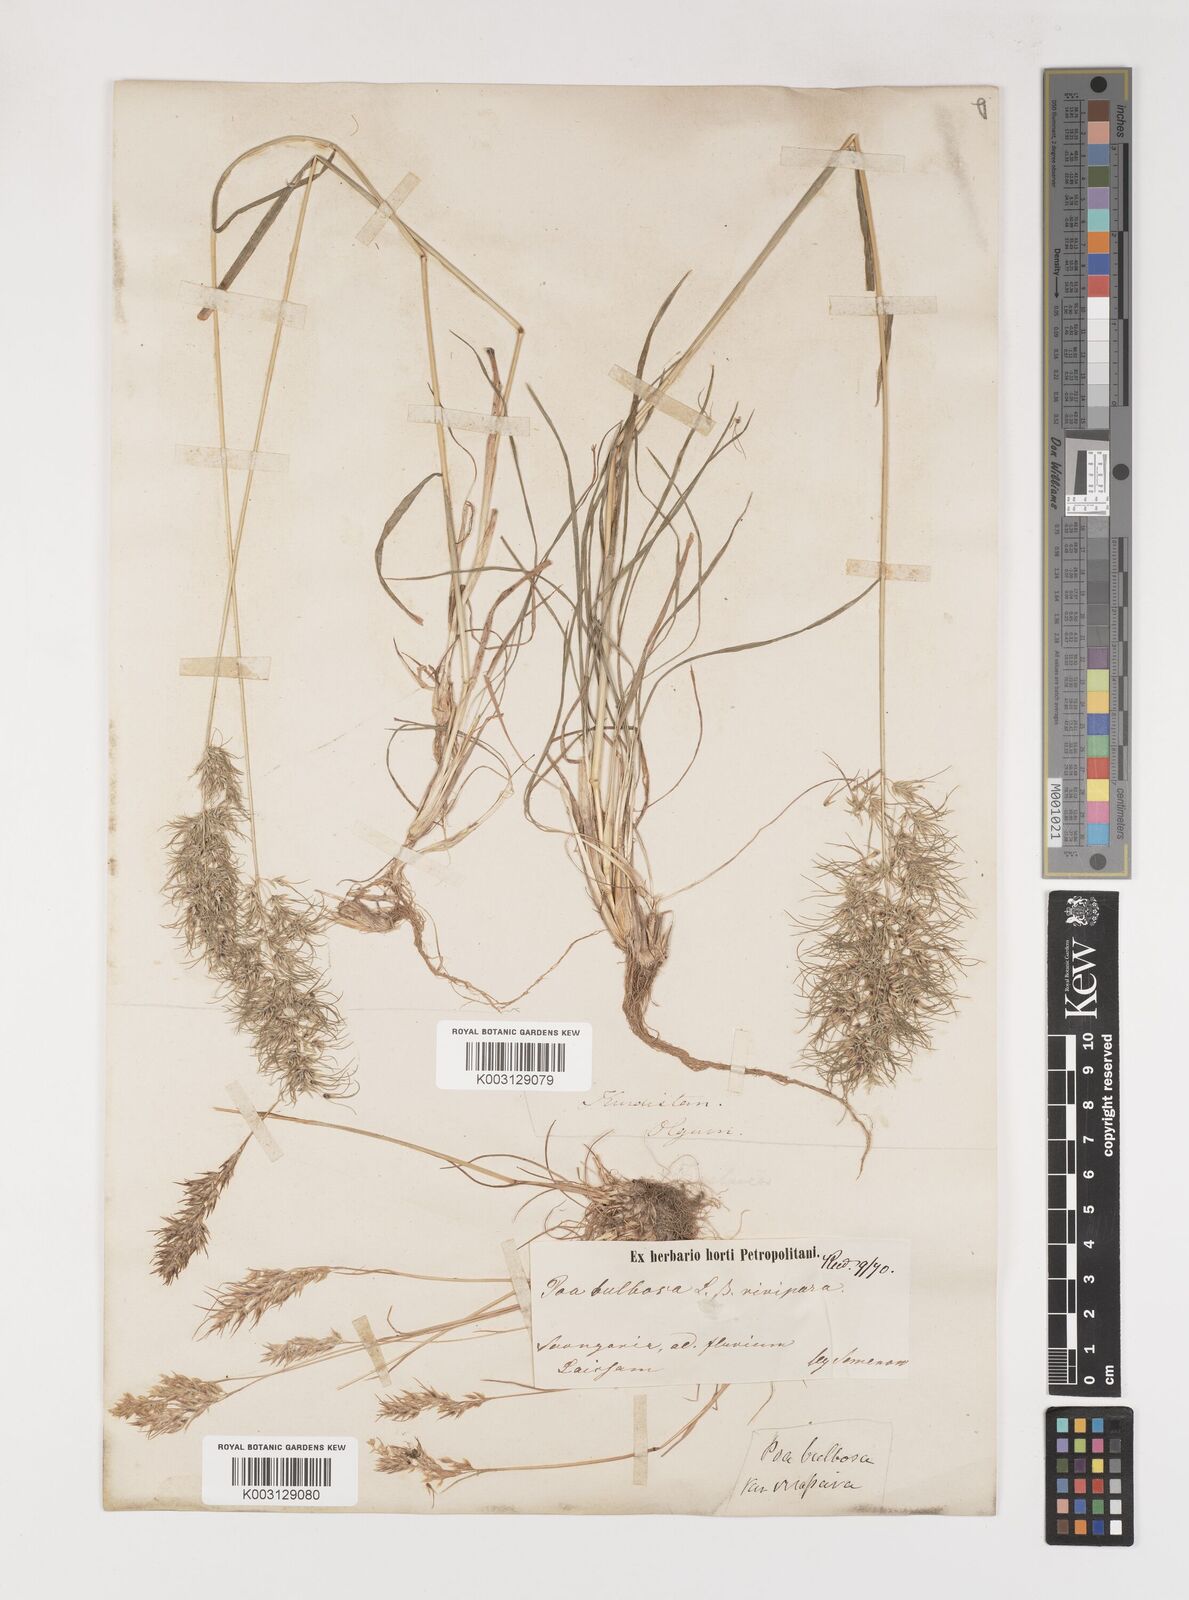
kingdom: Plantae
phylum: Tracheophyta
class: Liliopsida
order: Poales
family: Poaceae
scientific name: Poaceae
